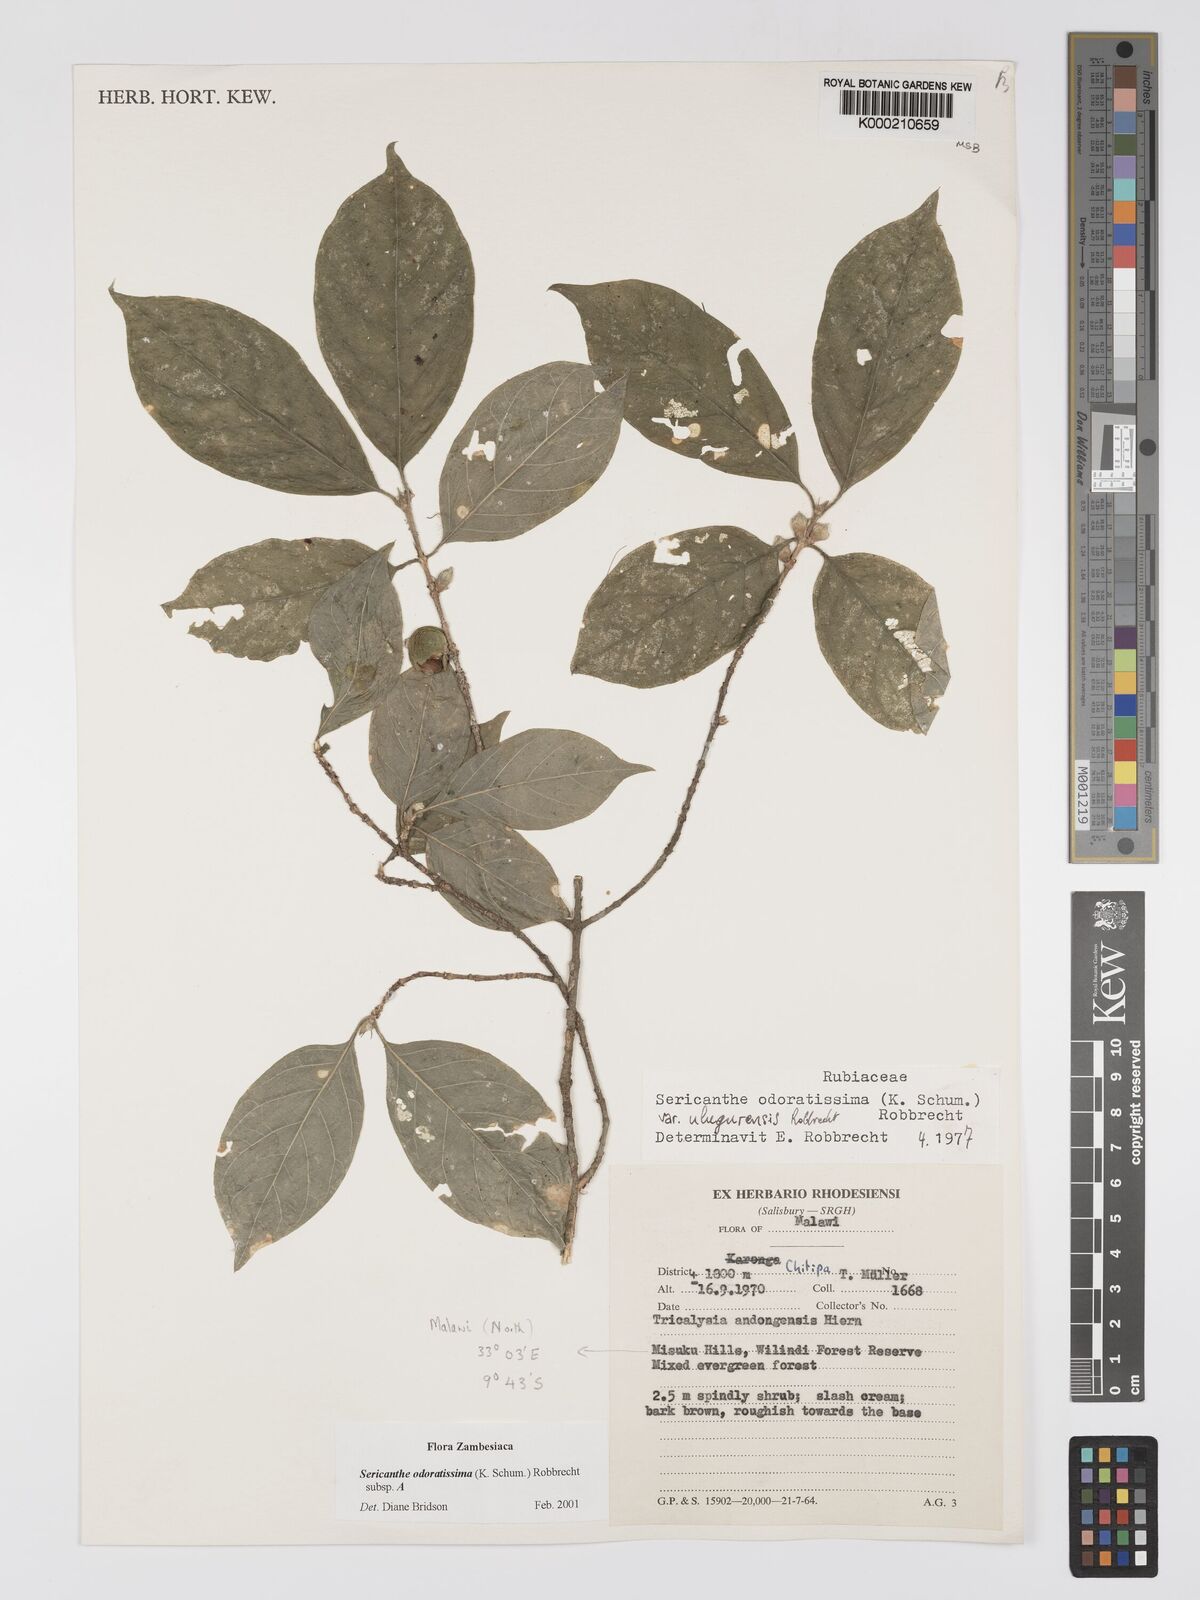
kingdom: Plantae
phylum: Tracheophyta
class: Magnoliopsida
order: Gentianales
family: Rubiaceae
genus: Sericanthe
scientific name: Sericanthe odoratissima
